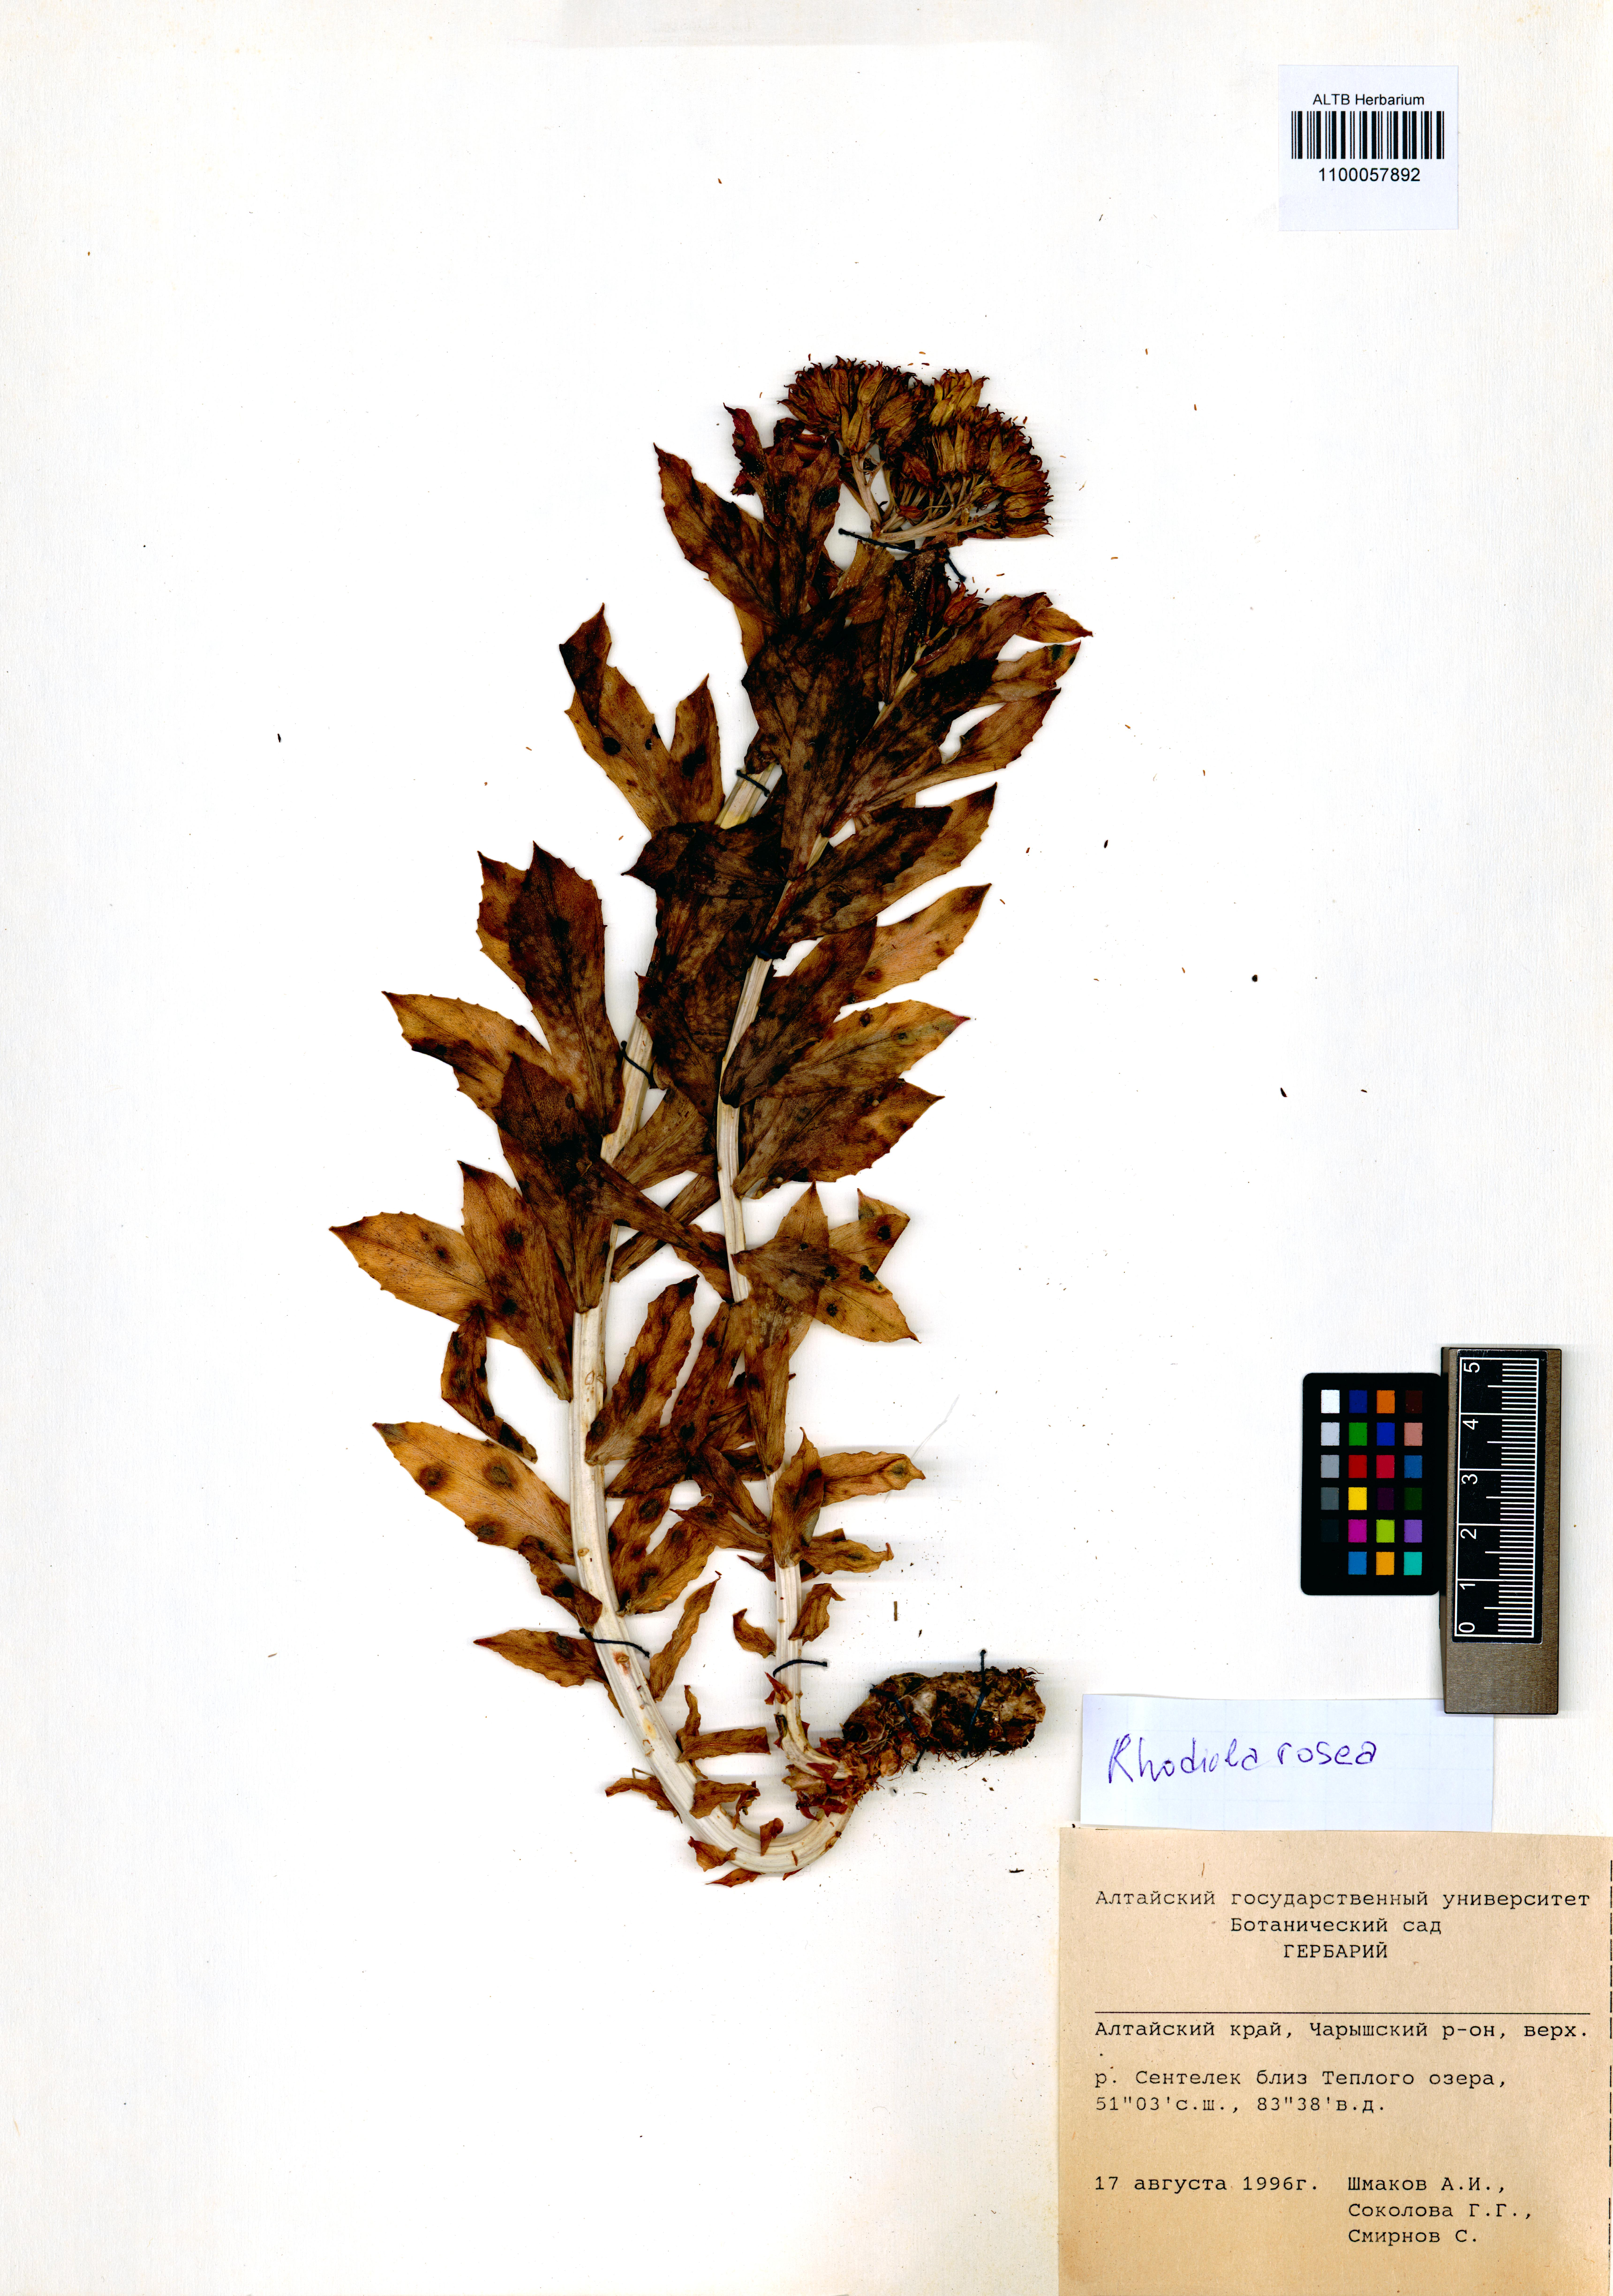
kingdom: Plantae
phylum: Tracheophyta
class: Magnoliopsida
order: Saxifragales
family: Crassulaceae
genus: Rhodiola
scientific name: Rhodiola rosea
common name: Roseroot
